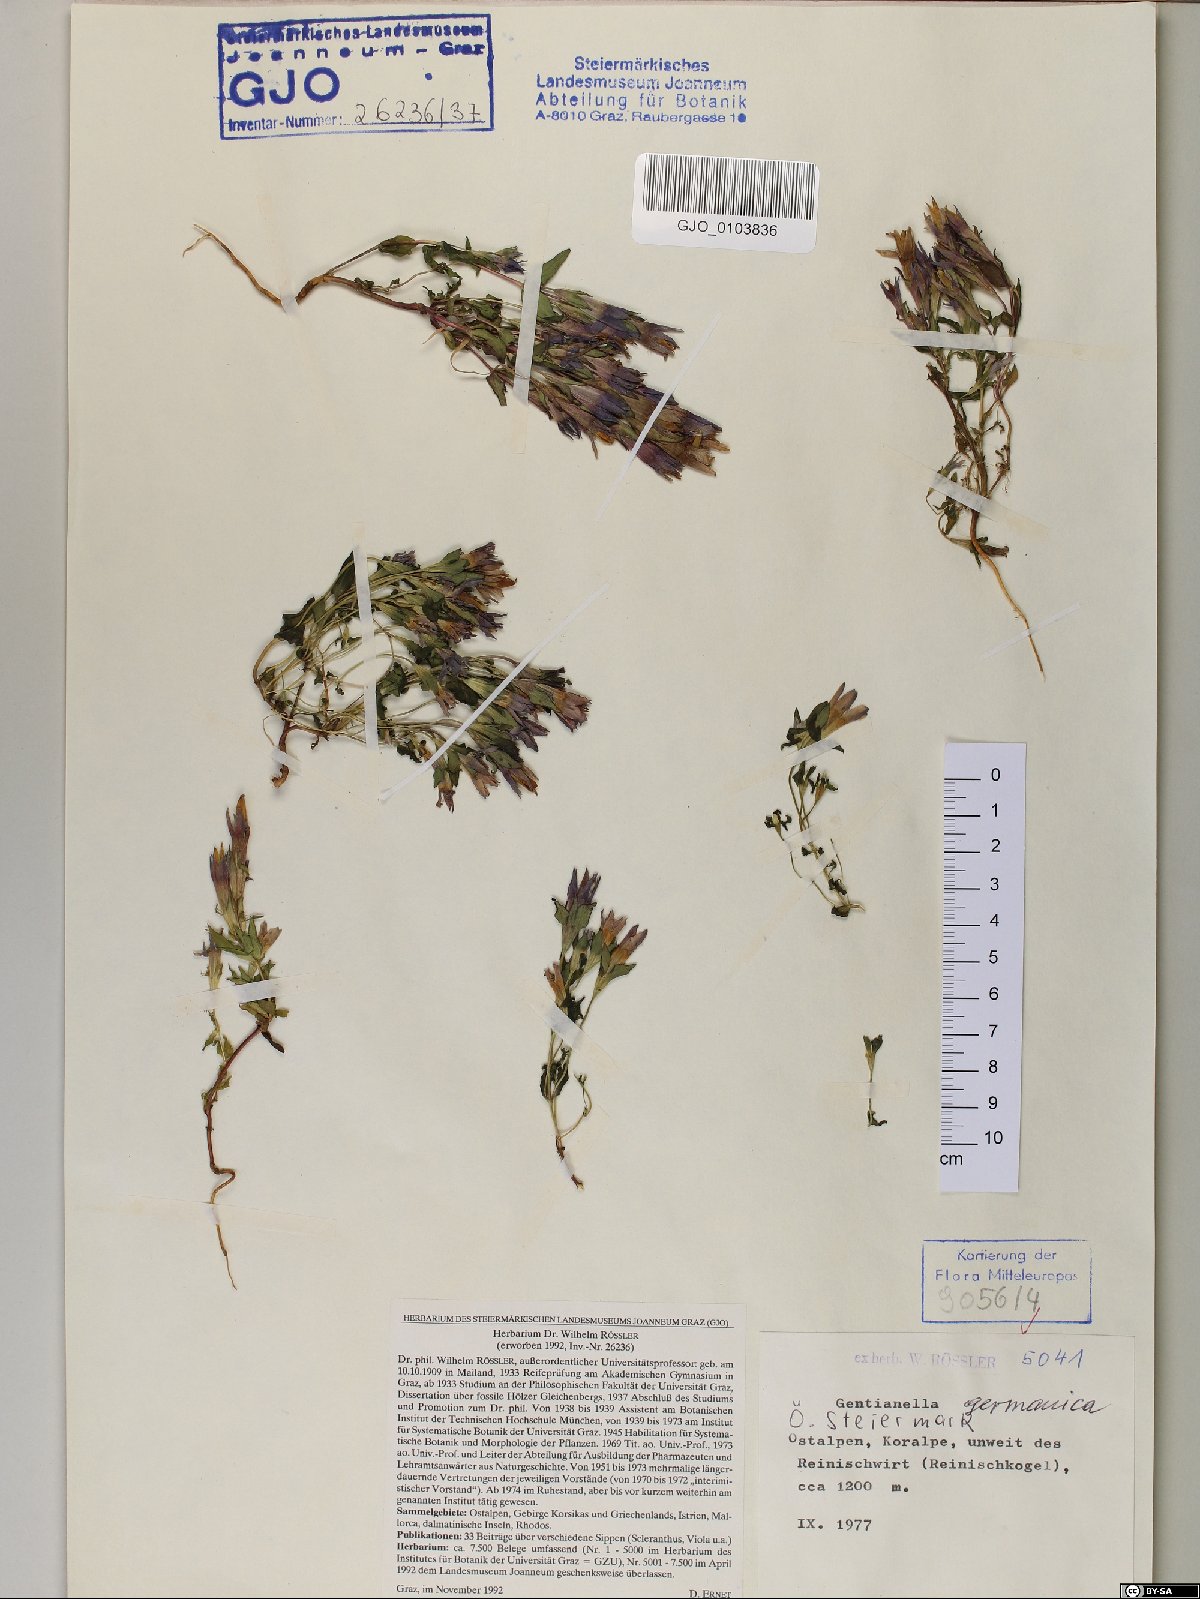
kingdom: Plantae
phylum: Tracheophyta
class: Magnoliopsida
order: Gentianales
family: Gentianaceae
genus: Gentianella
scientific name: Gentianella germanica
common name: Chiltern-gentian
